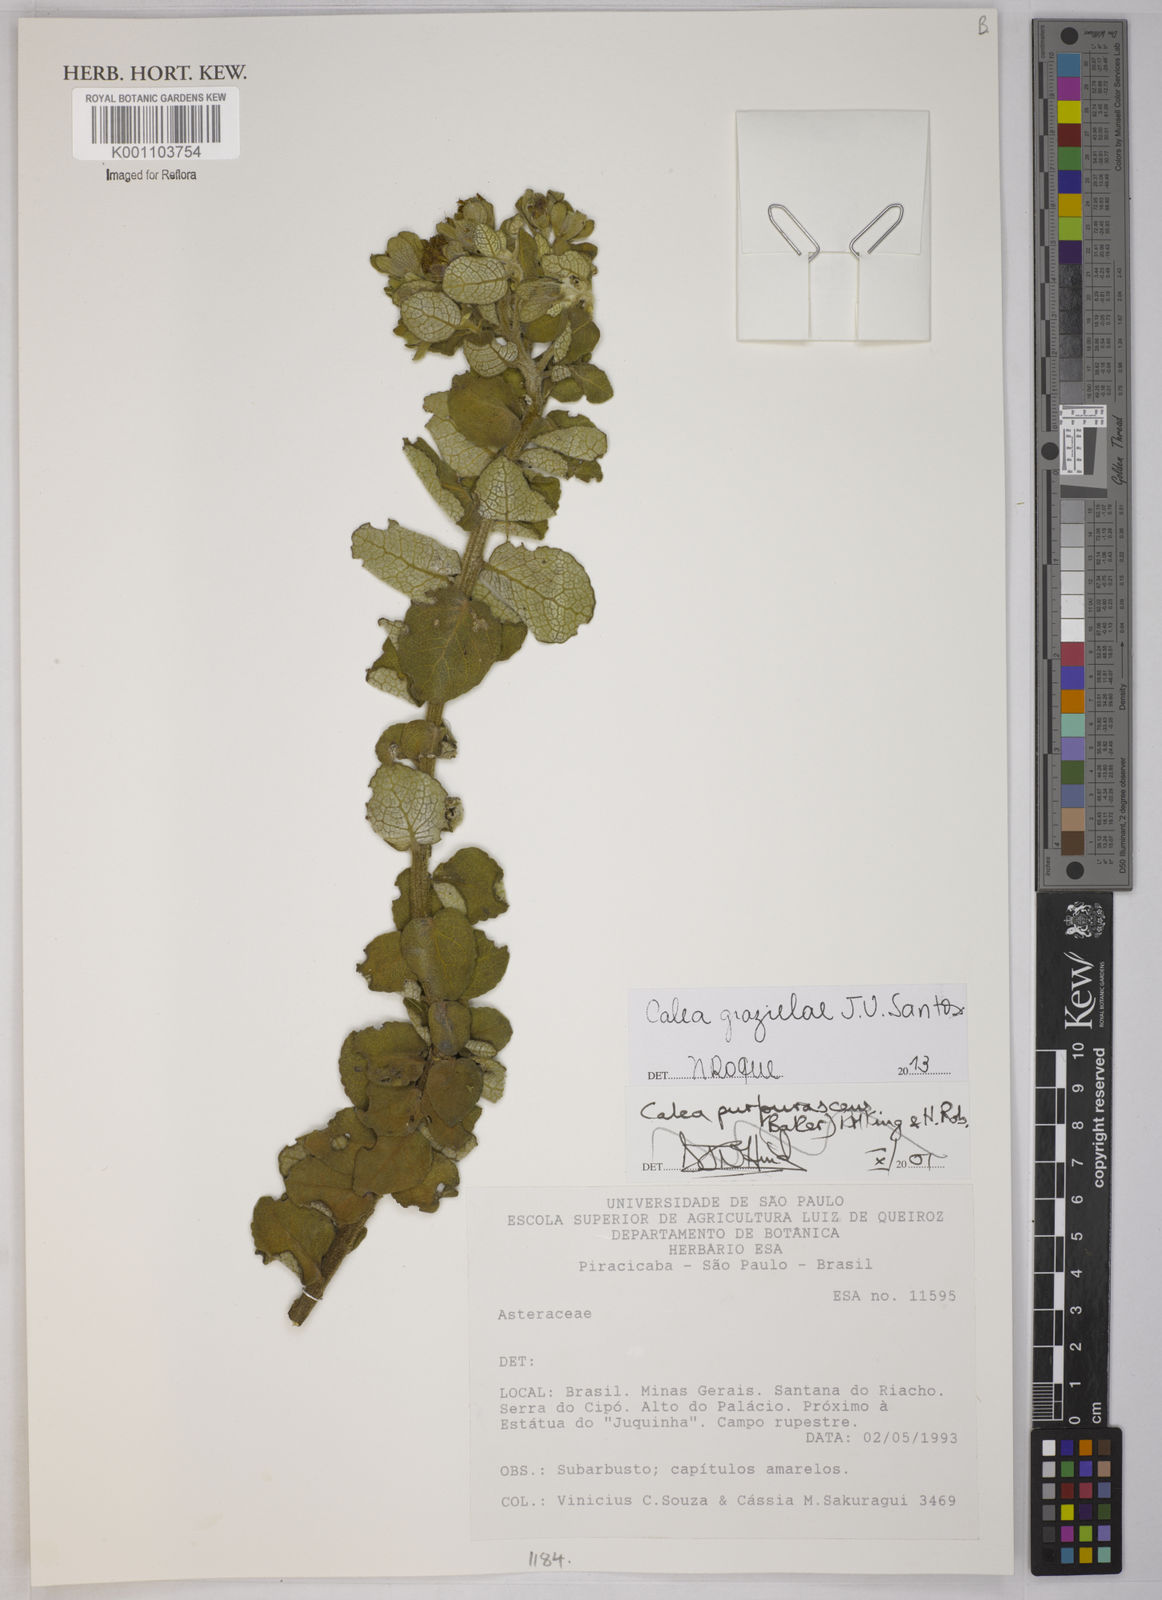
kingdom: Plantae
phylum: Tracheophyta
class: Magnoliopsida
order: Asterales
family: Asteraceae
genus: Calea
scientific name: Calea grazielae
